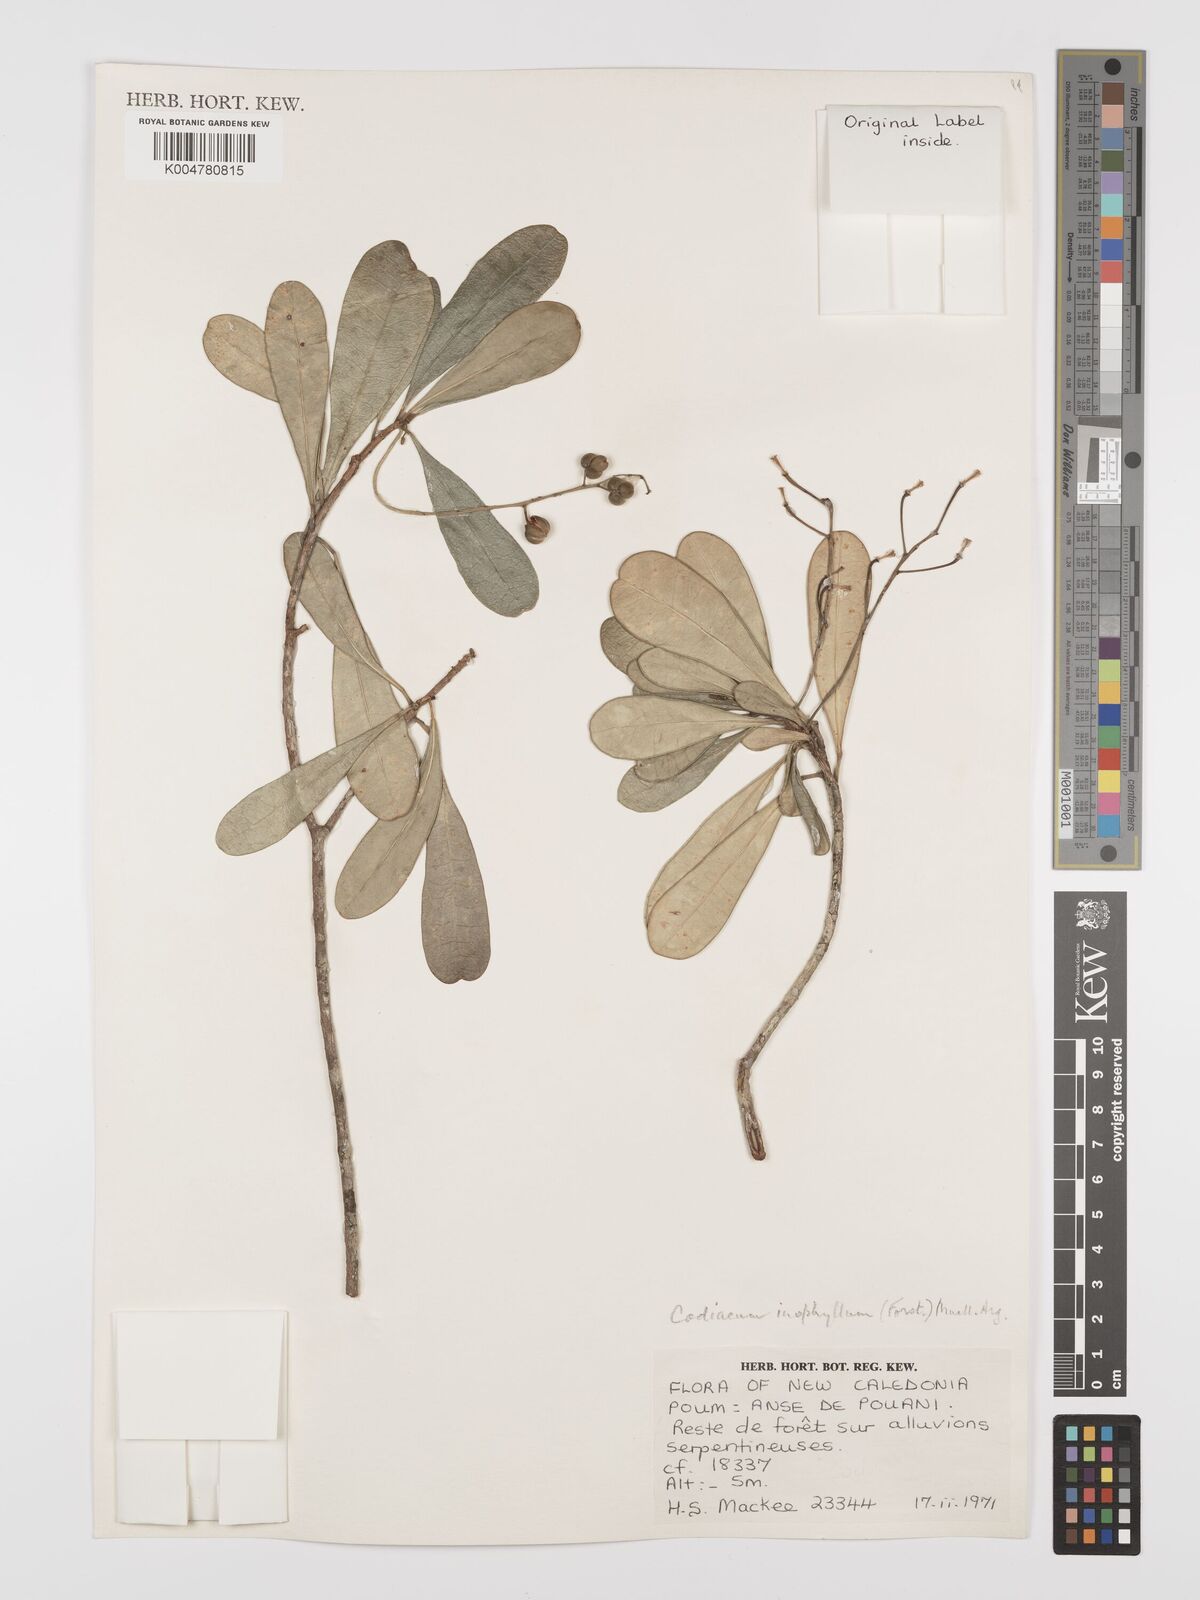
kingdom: Plantae
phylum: Tracheophyta
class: Magnoliopsida
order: Malpighiales
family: Euphorbiaceae
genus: Codiaeum
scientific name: Codiaeum
